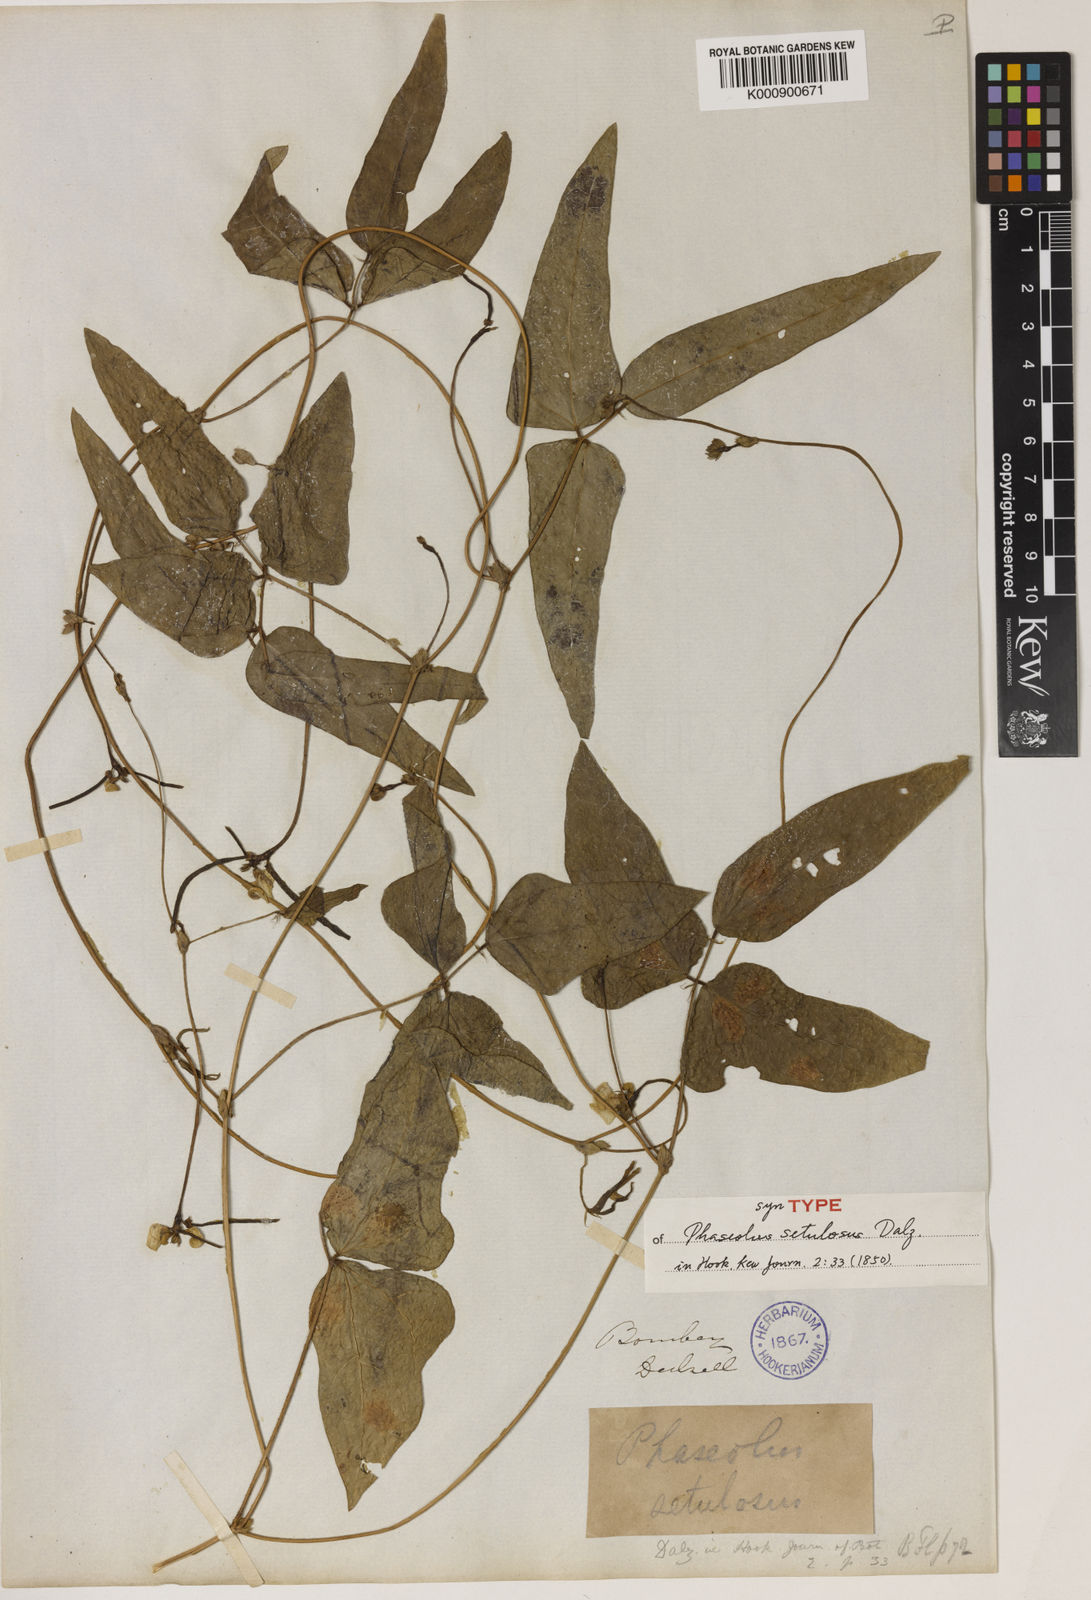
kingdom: Plantae
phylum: Tracheophyta
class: Magnoliopsida
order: Fabales
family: Fabaceae
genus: Vigna
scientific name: Vigna radiata
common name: Mung-bean
